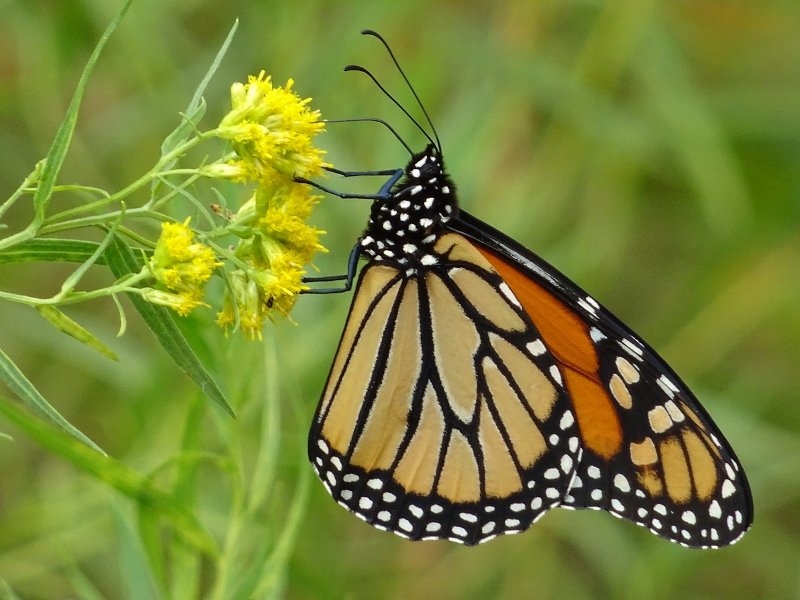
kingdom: Animalia
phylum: Arthropoda
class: Insecta
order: Lepidoptera
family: Nymphalidae
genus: Danaus
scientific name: Danaus plexippus
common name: Monarch
